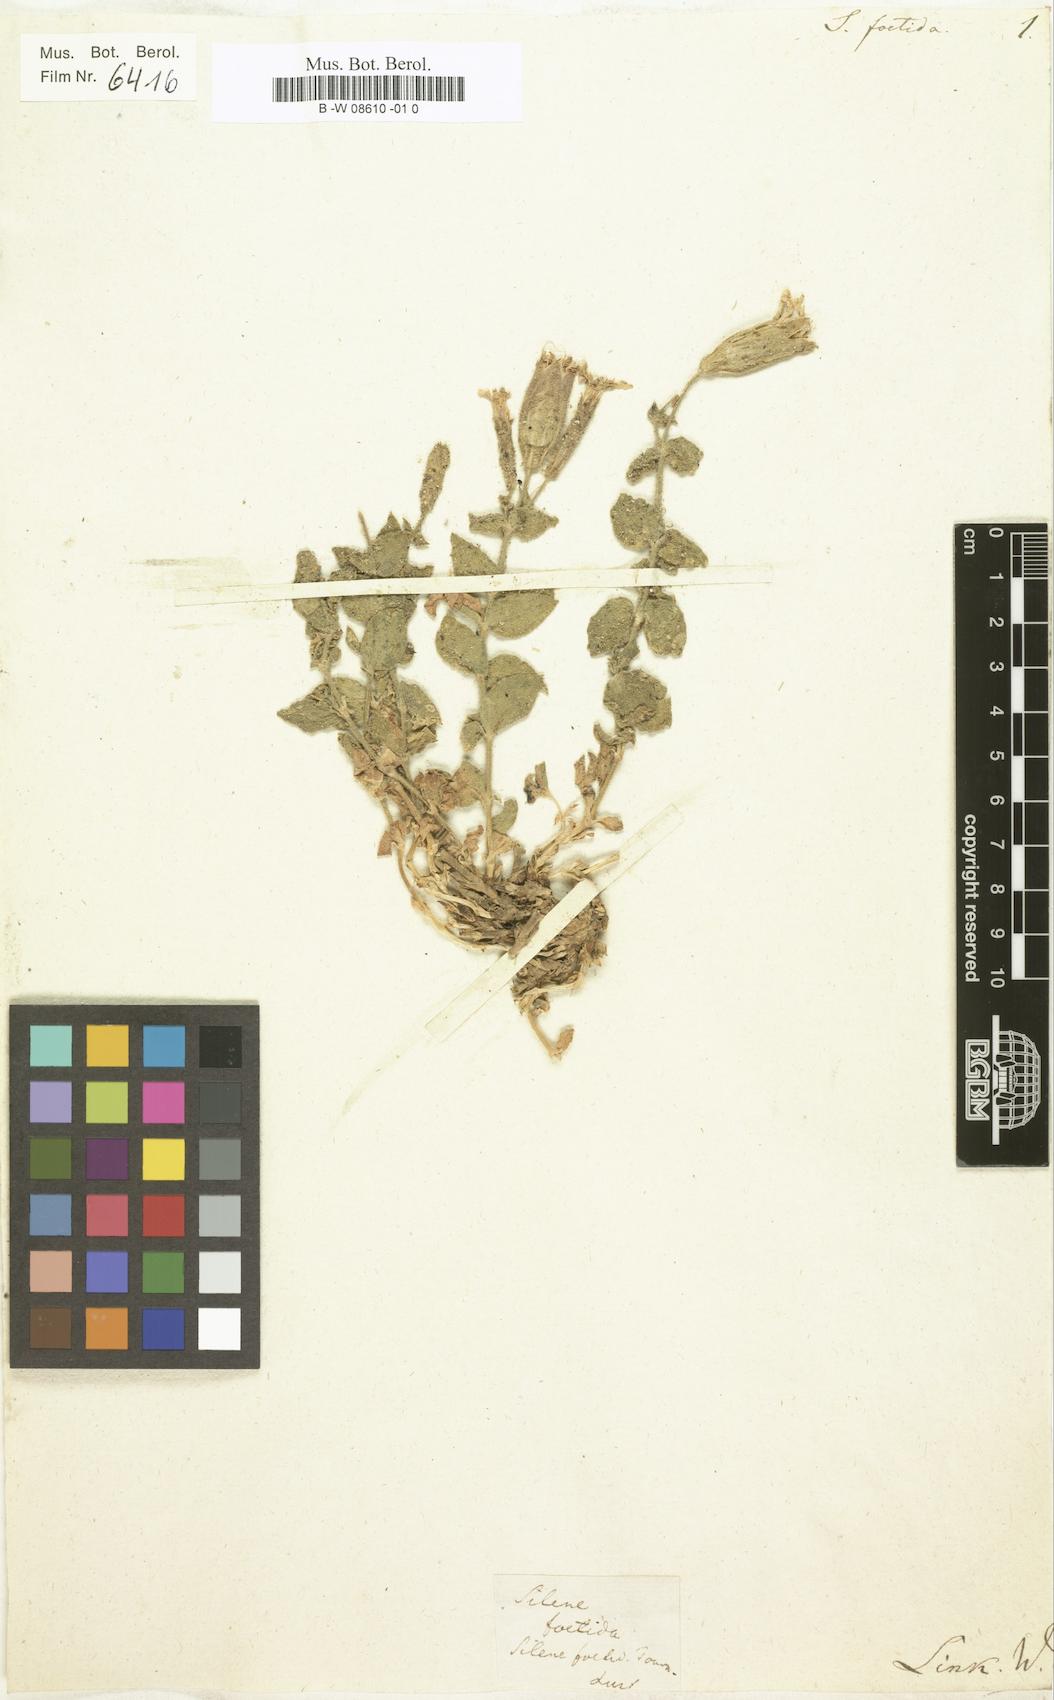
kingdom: Plantae
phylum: Tracheophyta
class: Magnoliopsida
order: Caryophyllales
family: Caryophyllaceae
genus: Silene
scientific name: Silene foetida
